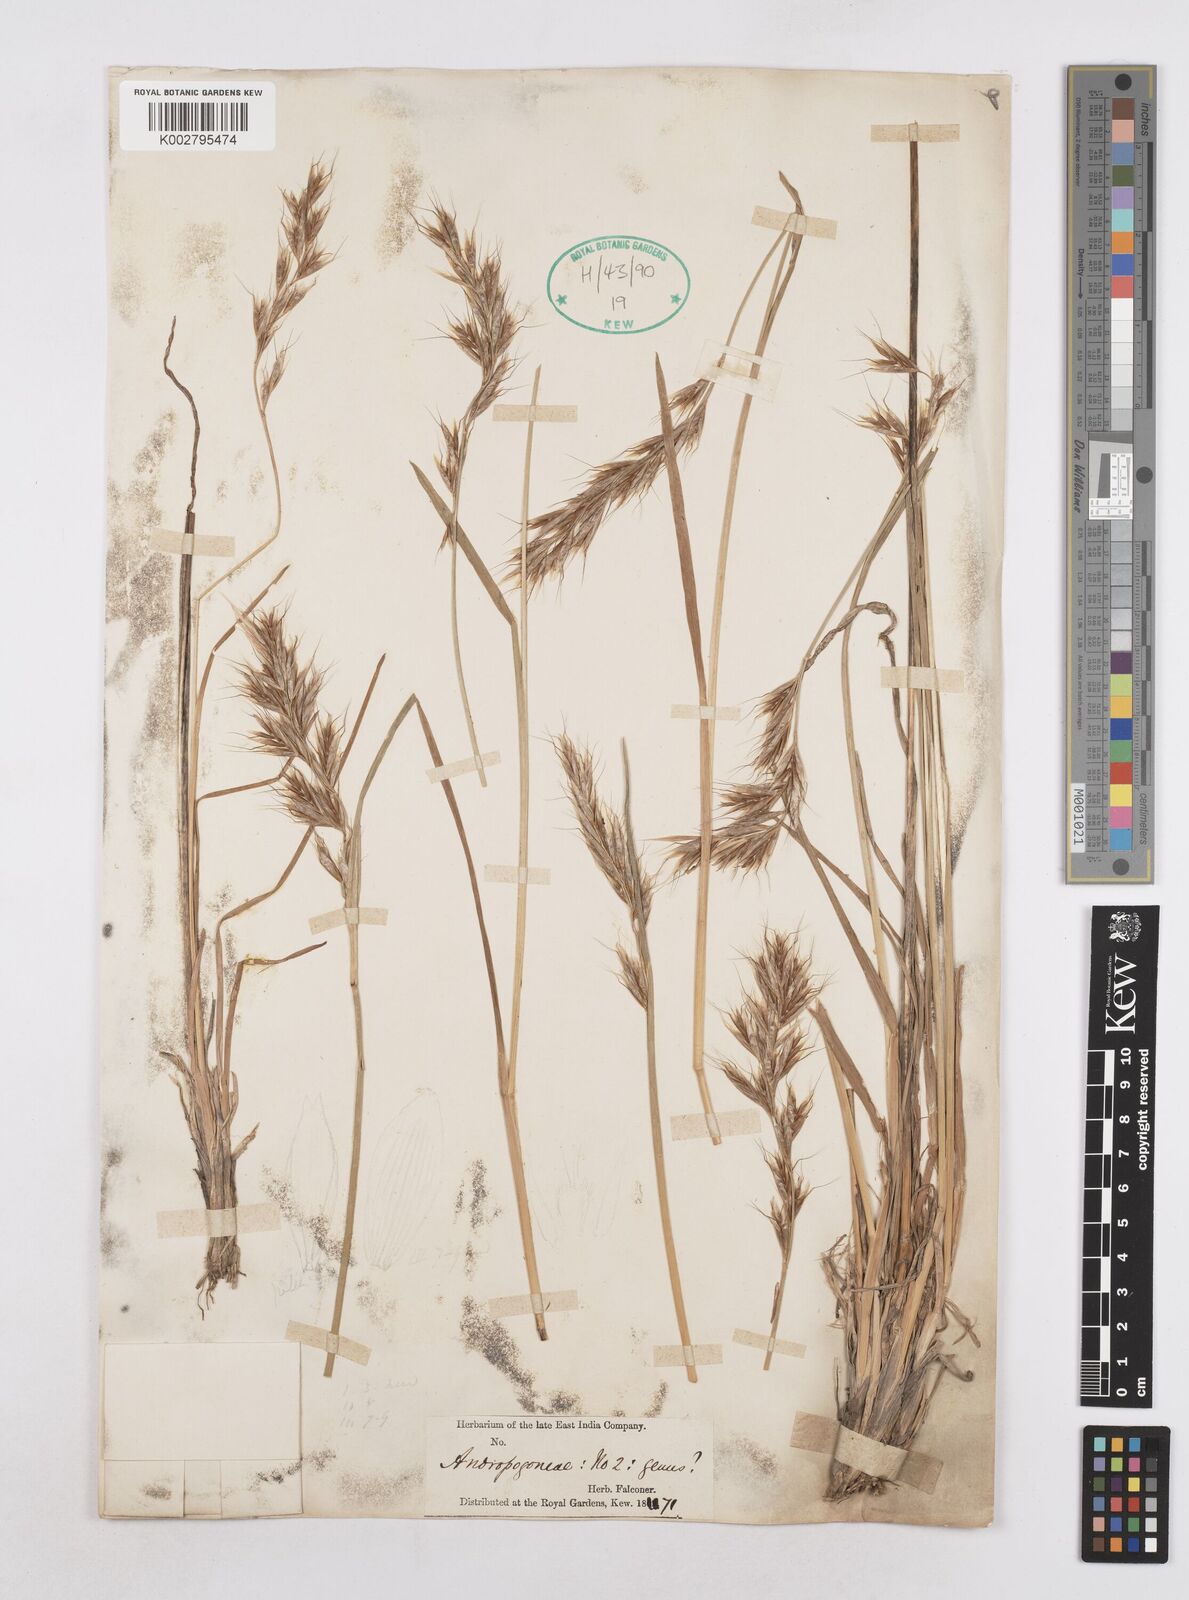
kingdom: Plantae
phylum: Tracheophyta
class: Liliopsida
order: Poales
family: Poaceae
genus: Helictochloa
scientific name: Helictochloa pratensis
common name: Meadow oat grass
